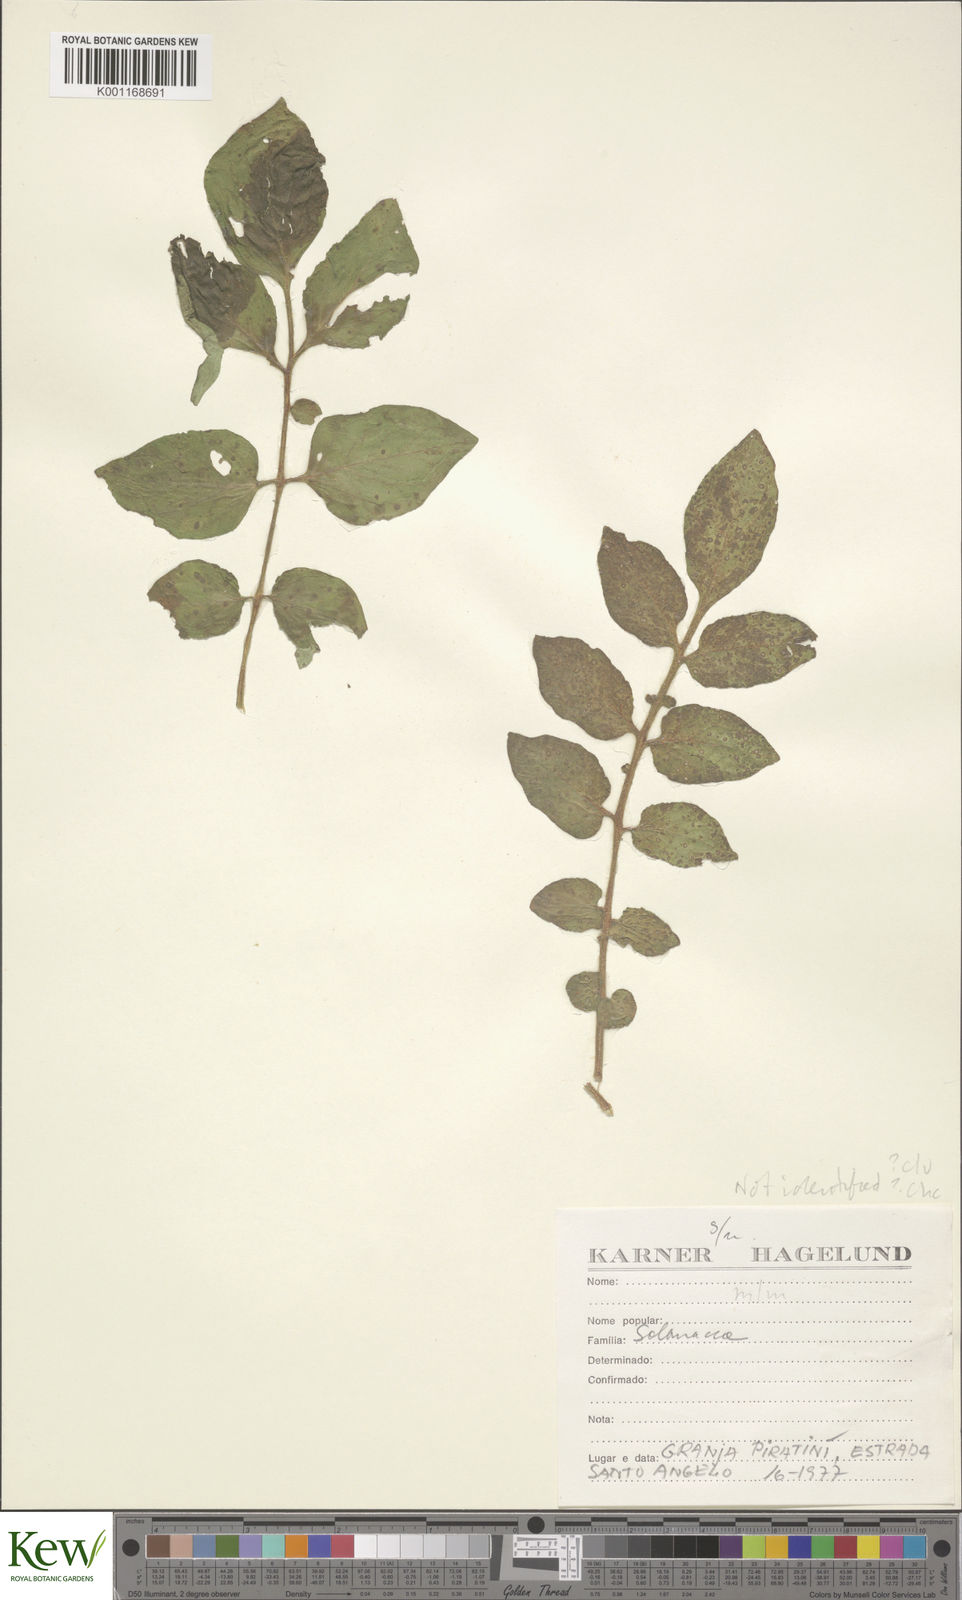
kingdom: Plantae
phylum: Tracheophyta
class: Magnoliopsida
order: Solanales
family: Solanaceae
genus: Solanum
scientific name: Solanum chacoense
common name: Chaco potato
